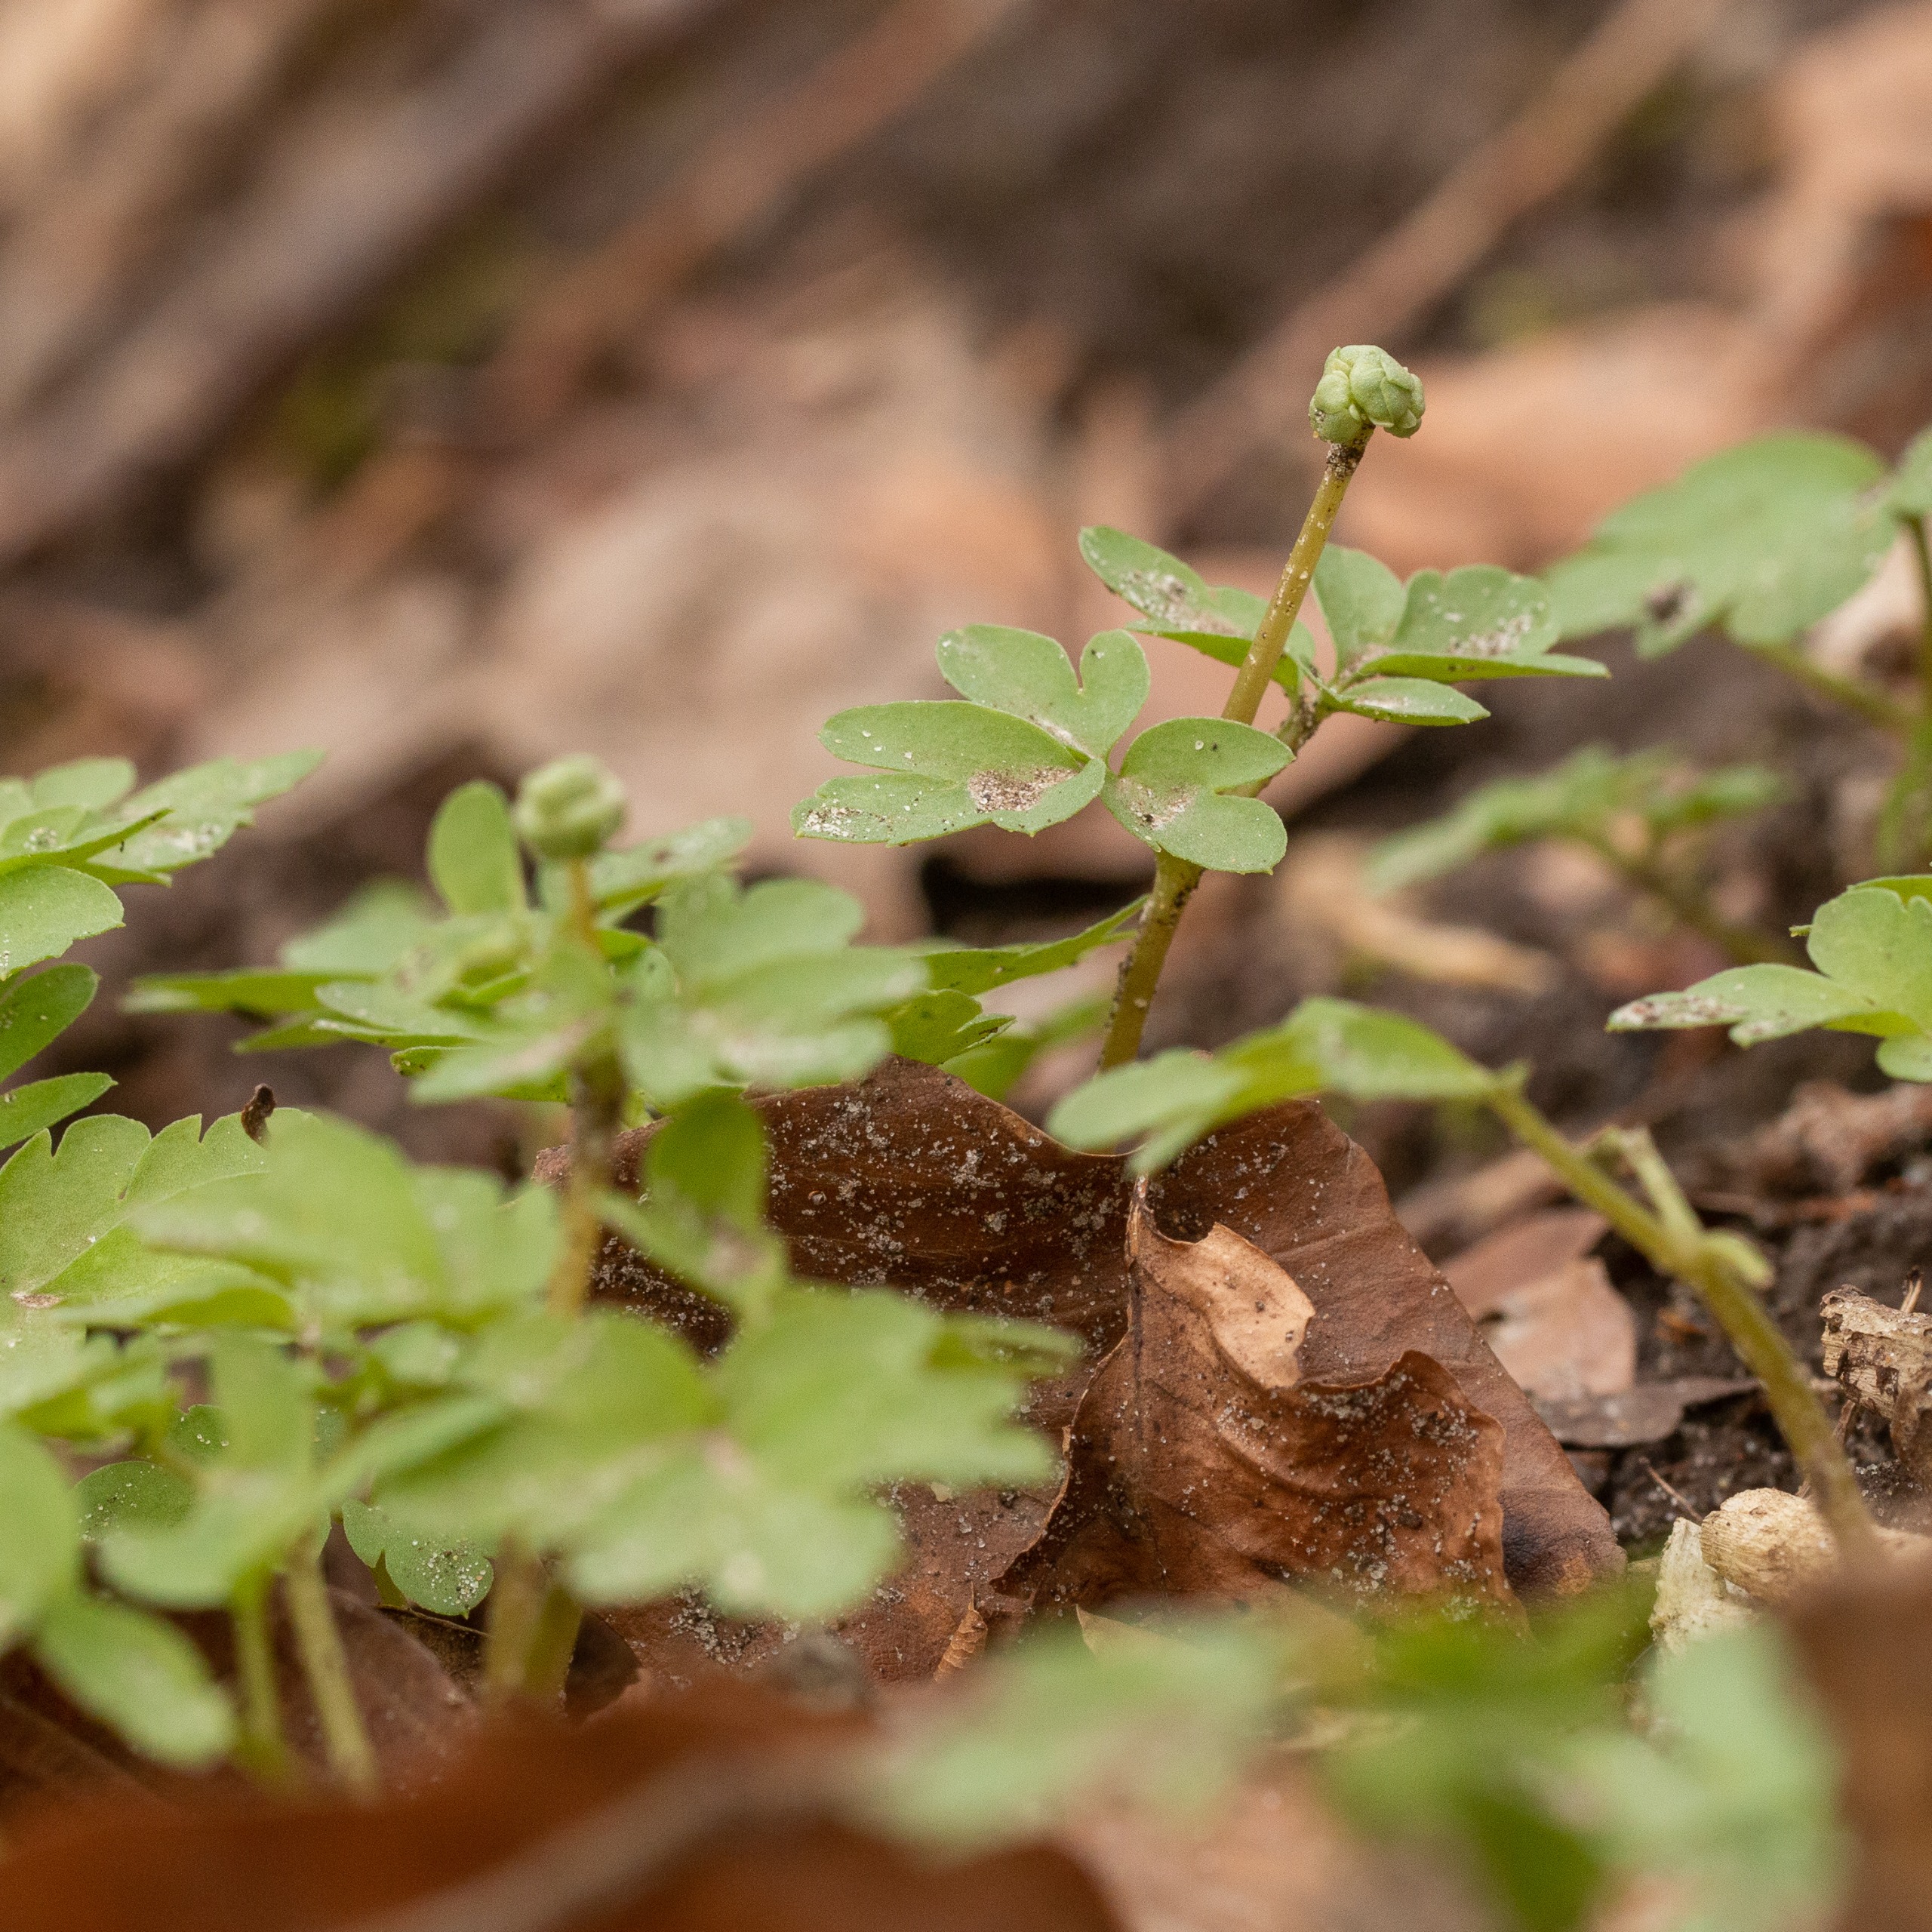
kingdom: Plantae
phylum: Tracheophyta
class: Magnoliopsida
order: Dipsacales
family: Viburnaceae
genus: Adoxa
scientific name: Adoxa moschatellina
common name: Desmerurt
